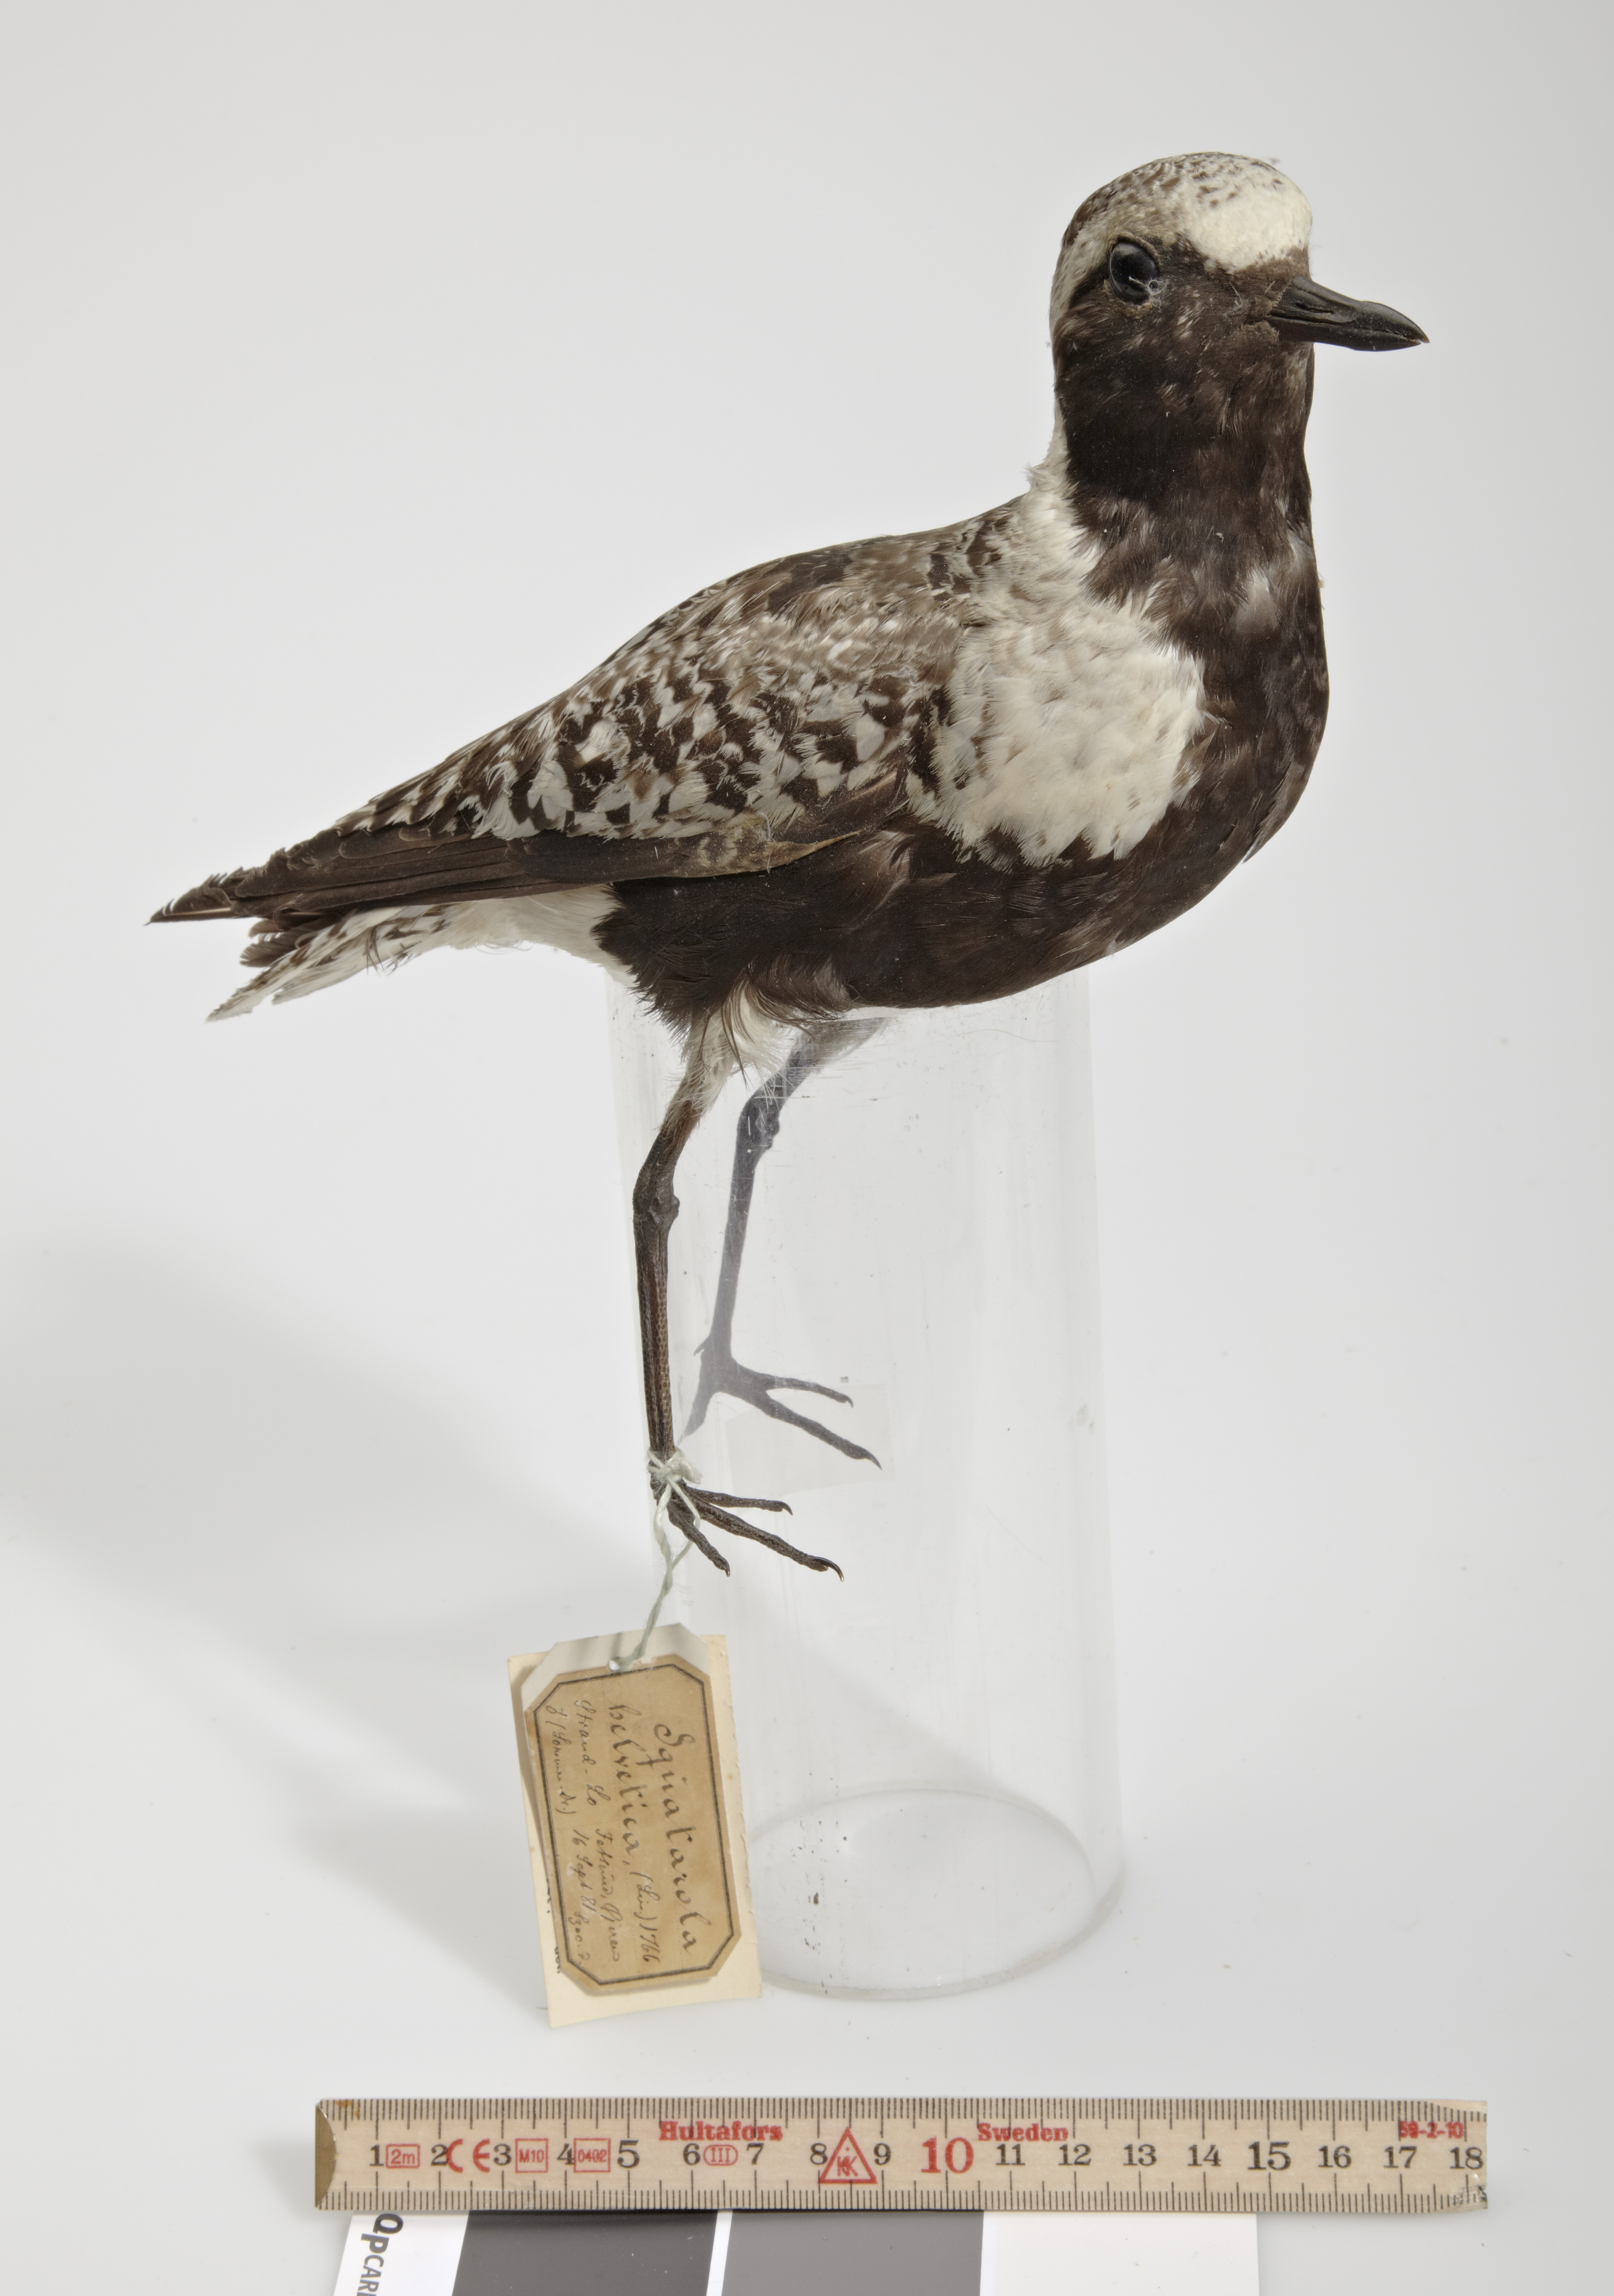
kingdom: Animalia
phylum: Chordata
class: Aves
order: Charadriiformes
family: Charadriidae
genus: Pluvialis
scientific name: Pluvialis squatarola
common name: Grey plover
